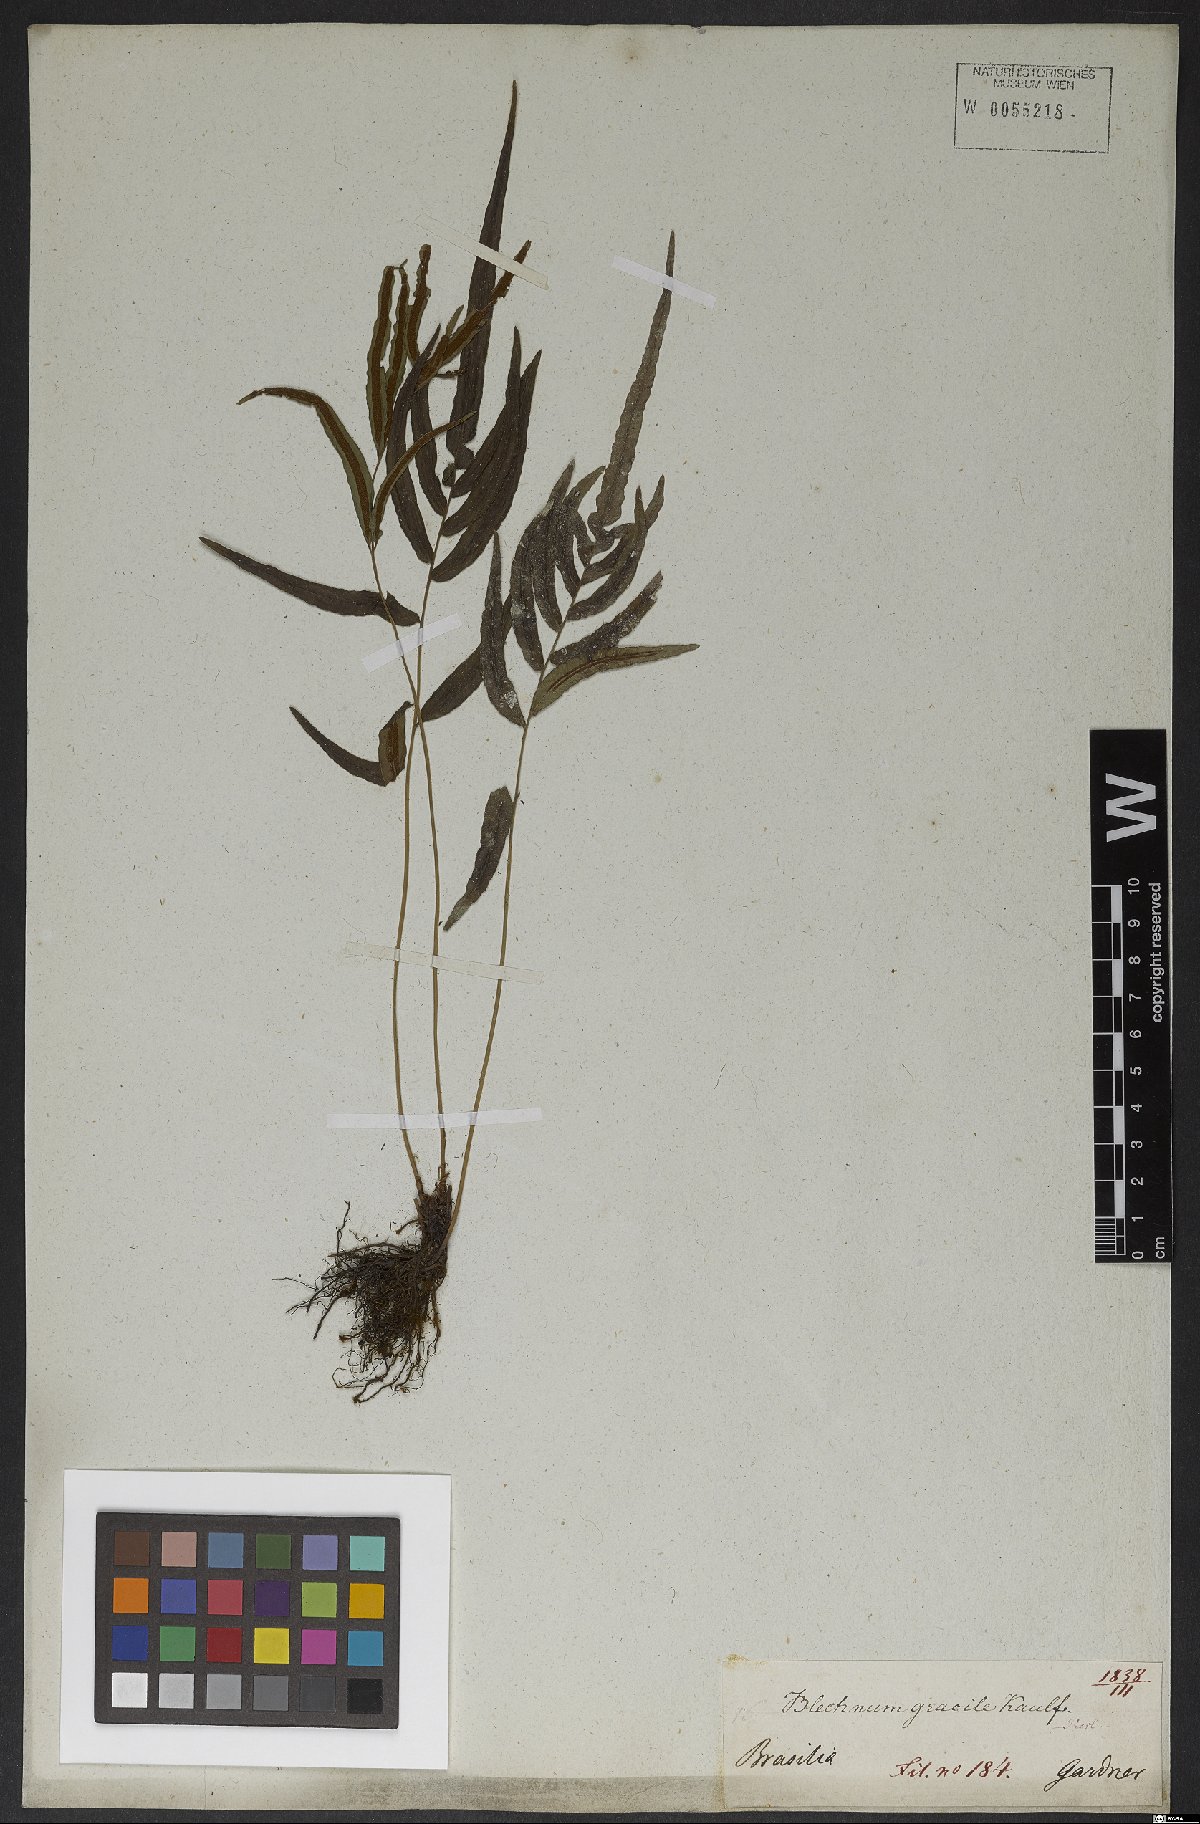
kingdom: Plantae
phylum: Tracheophyta
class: Polypodiopsida
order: Polypodiales
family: Blechnaceae
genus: Blechnum
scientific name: Blechnum gracile
